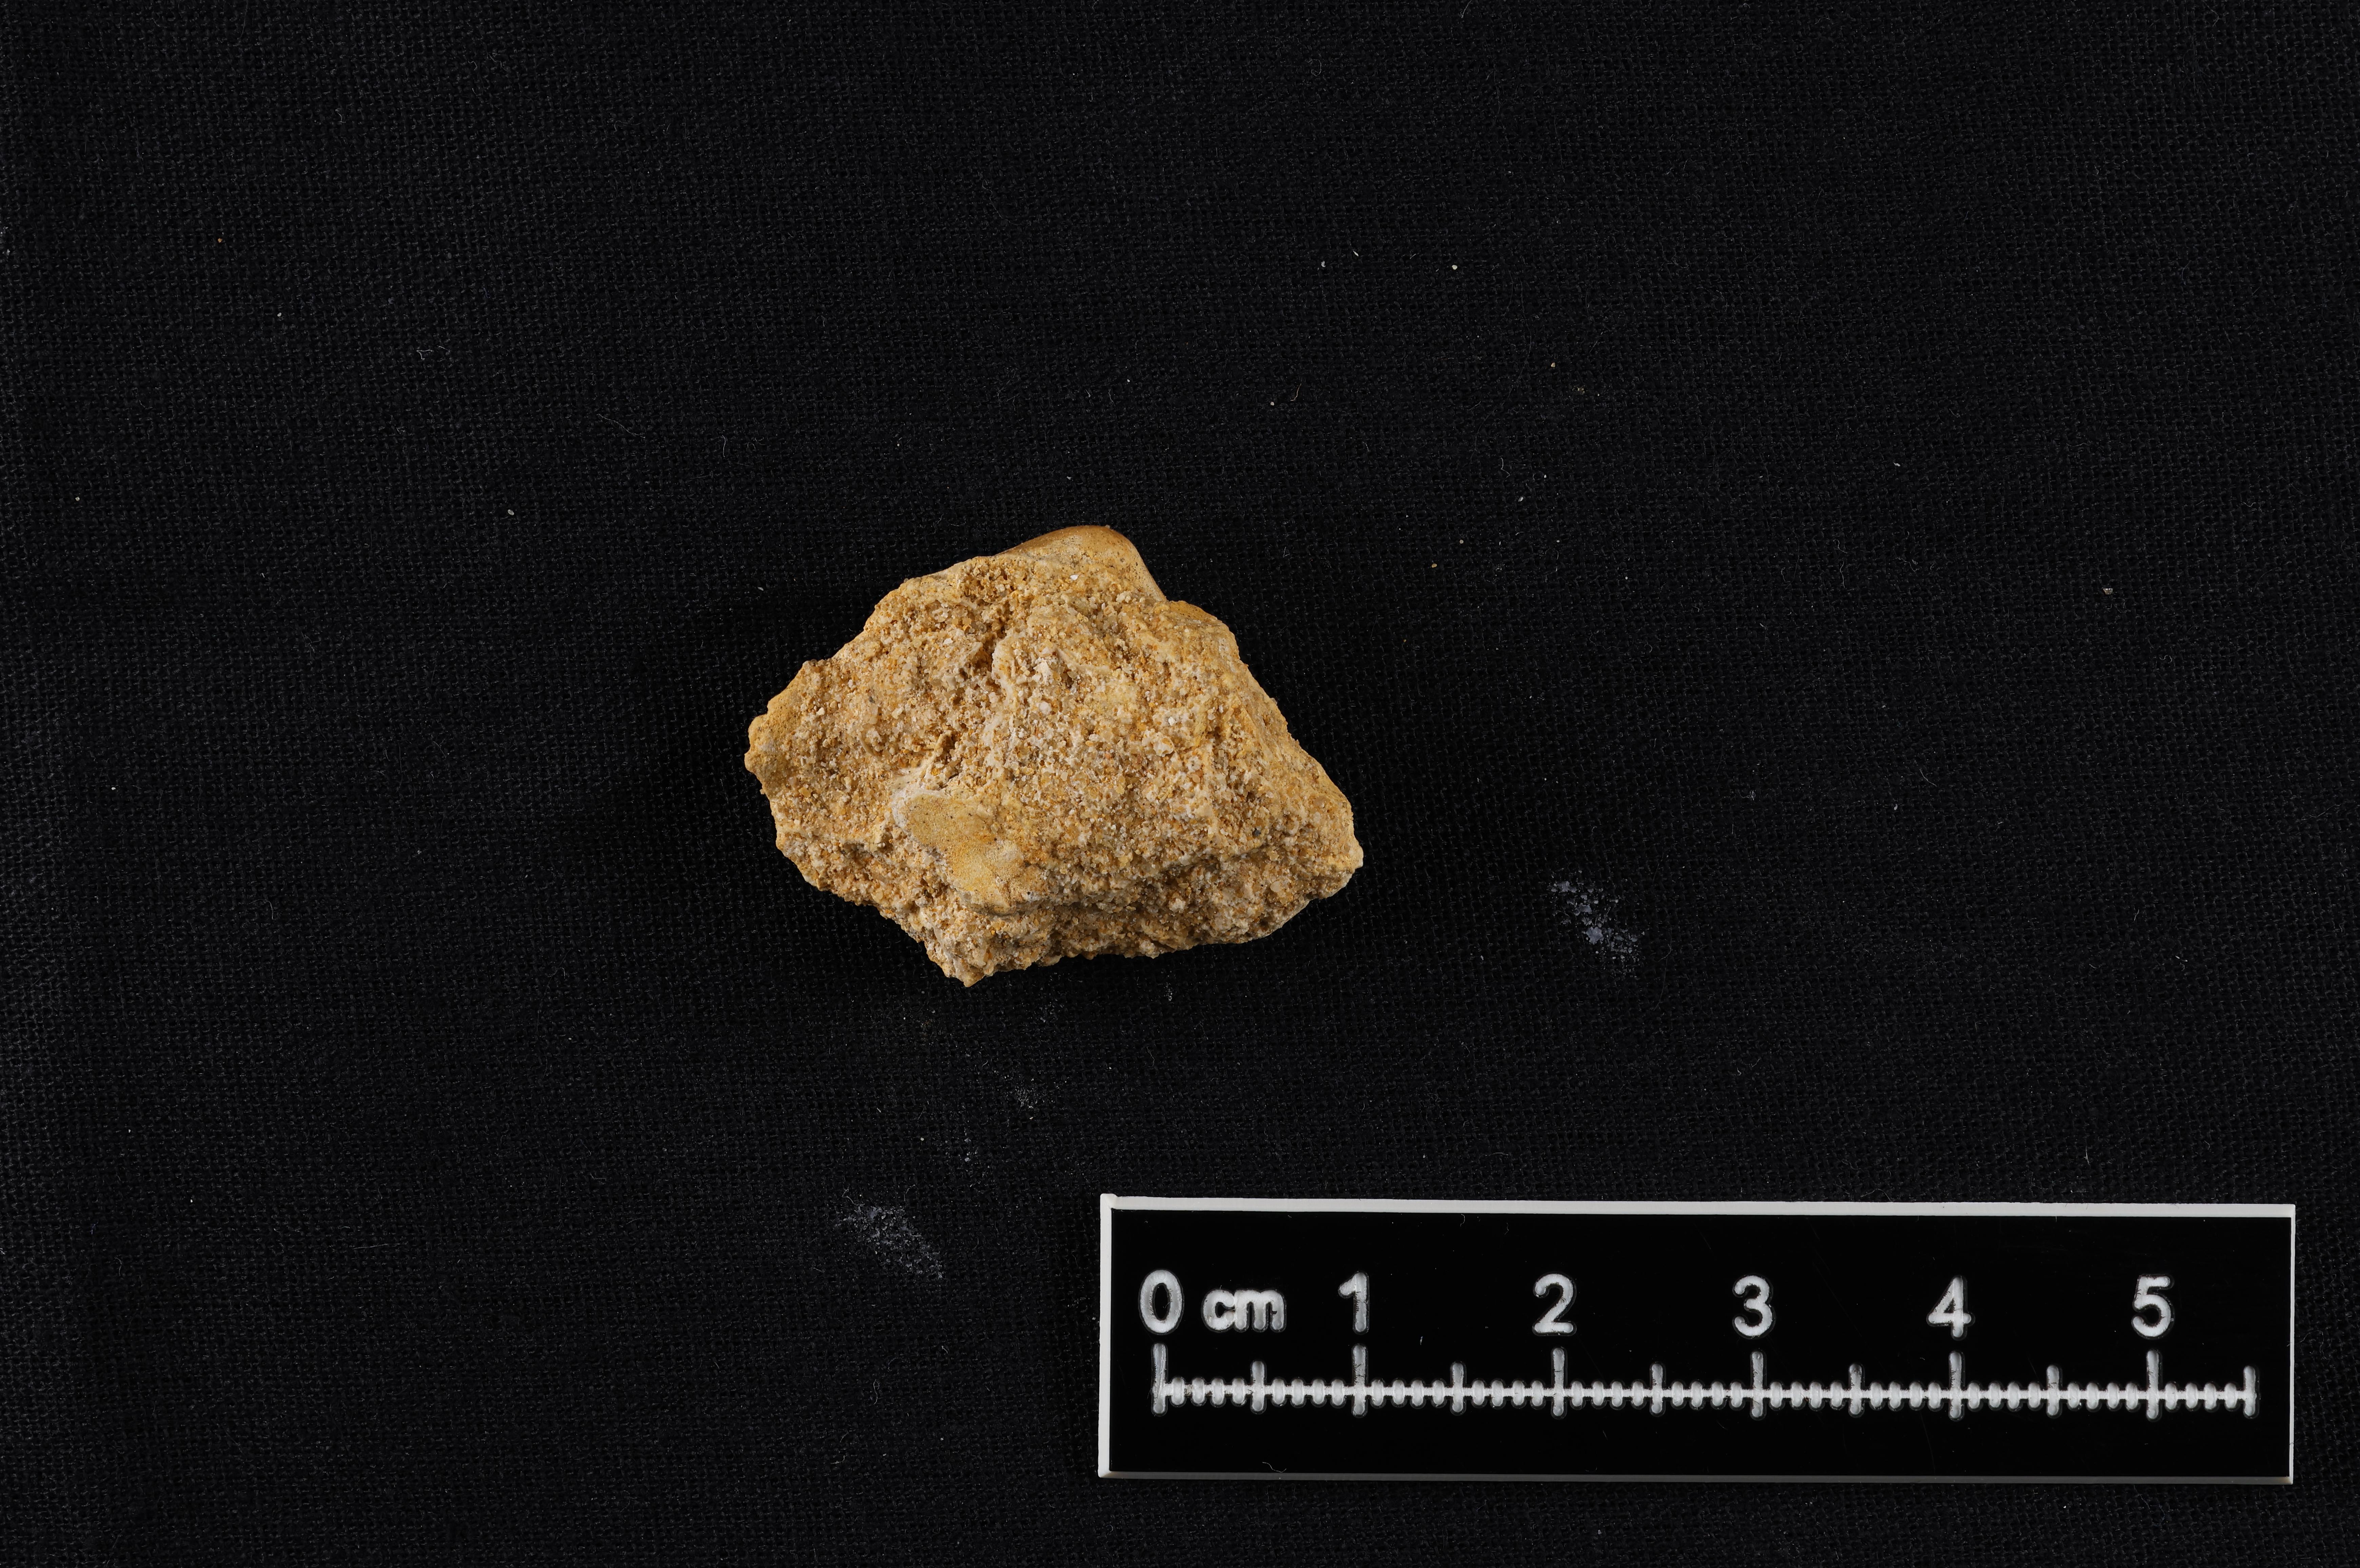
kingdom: Animalia
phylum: Mollusca
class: Bivalvia
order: Cardiida
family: Tancrediidae
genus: Tancredia
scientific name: Tancredia
